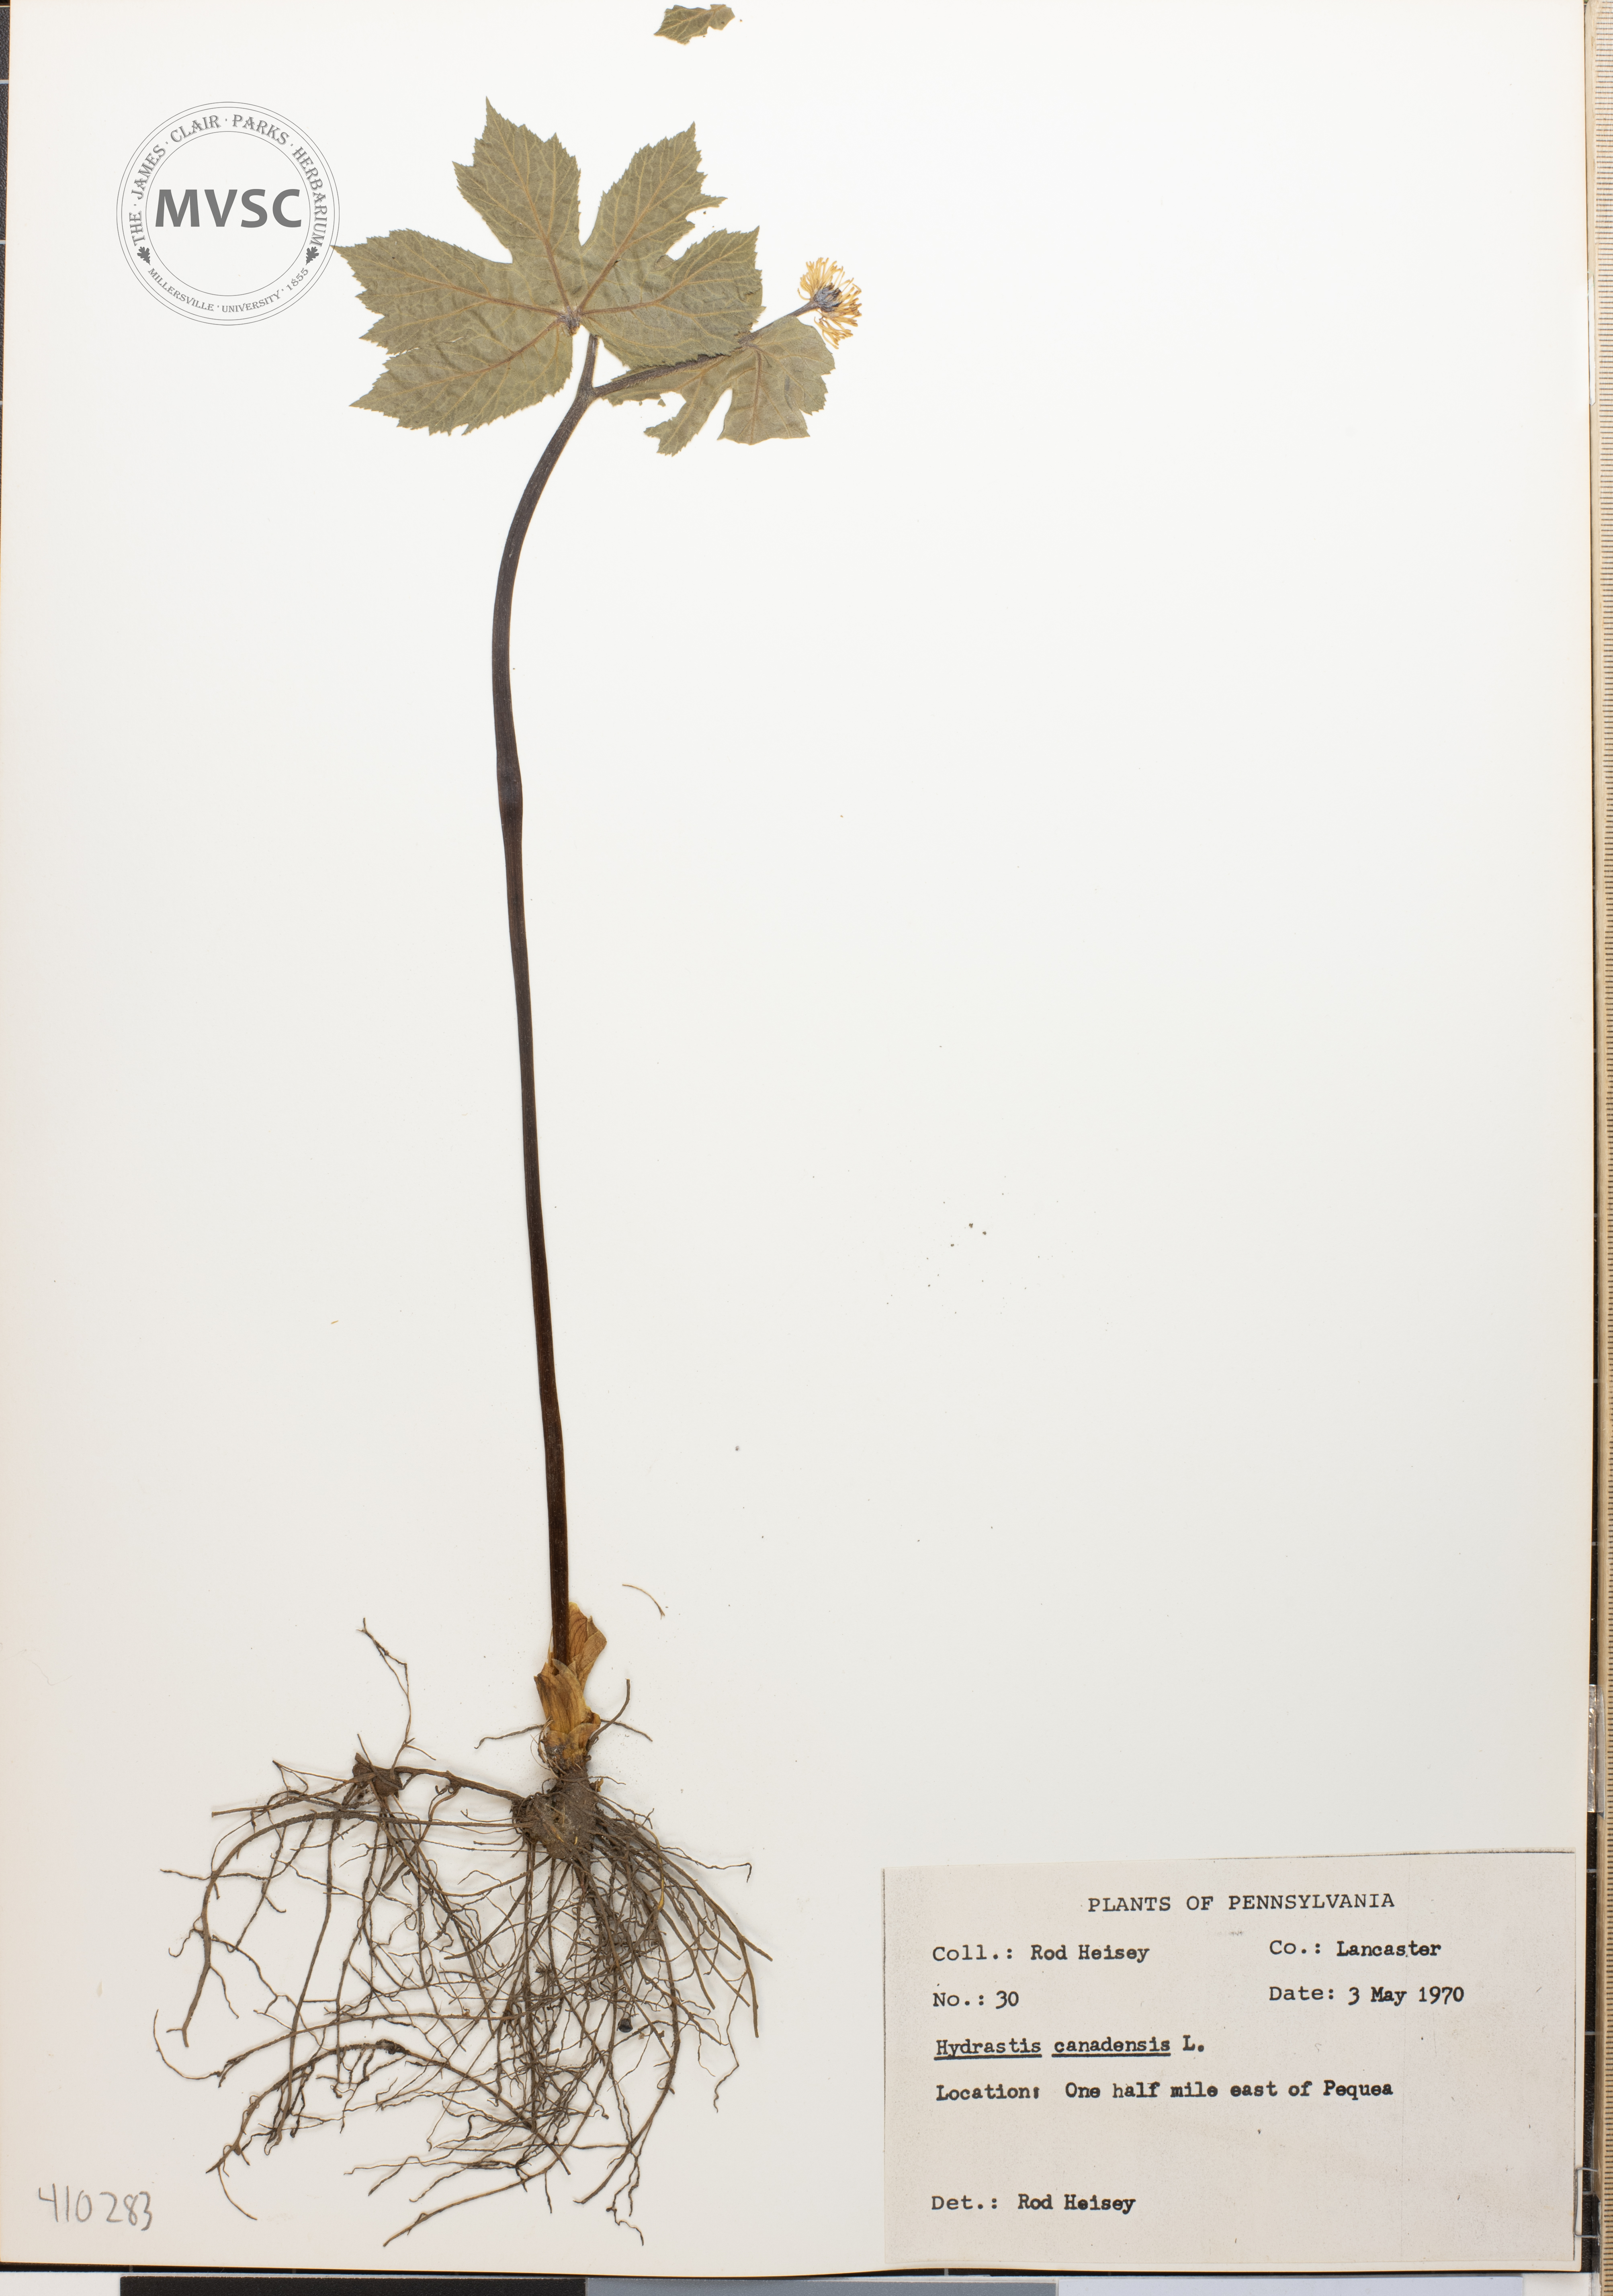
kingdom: Plantae
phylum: Tracheophyta
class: Magnoliopsida
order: Ranunculales
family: Ranunculaceae
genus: Hydrastis
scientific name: Hydrastis canadensis
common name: Goldenseal
